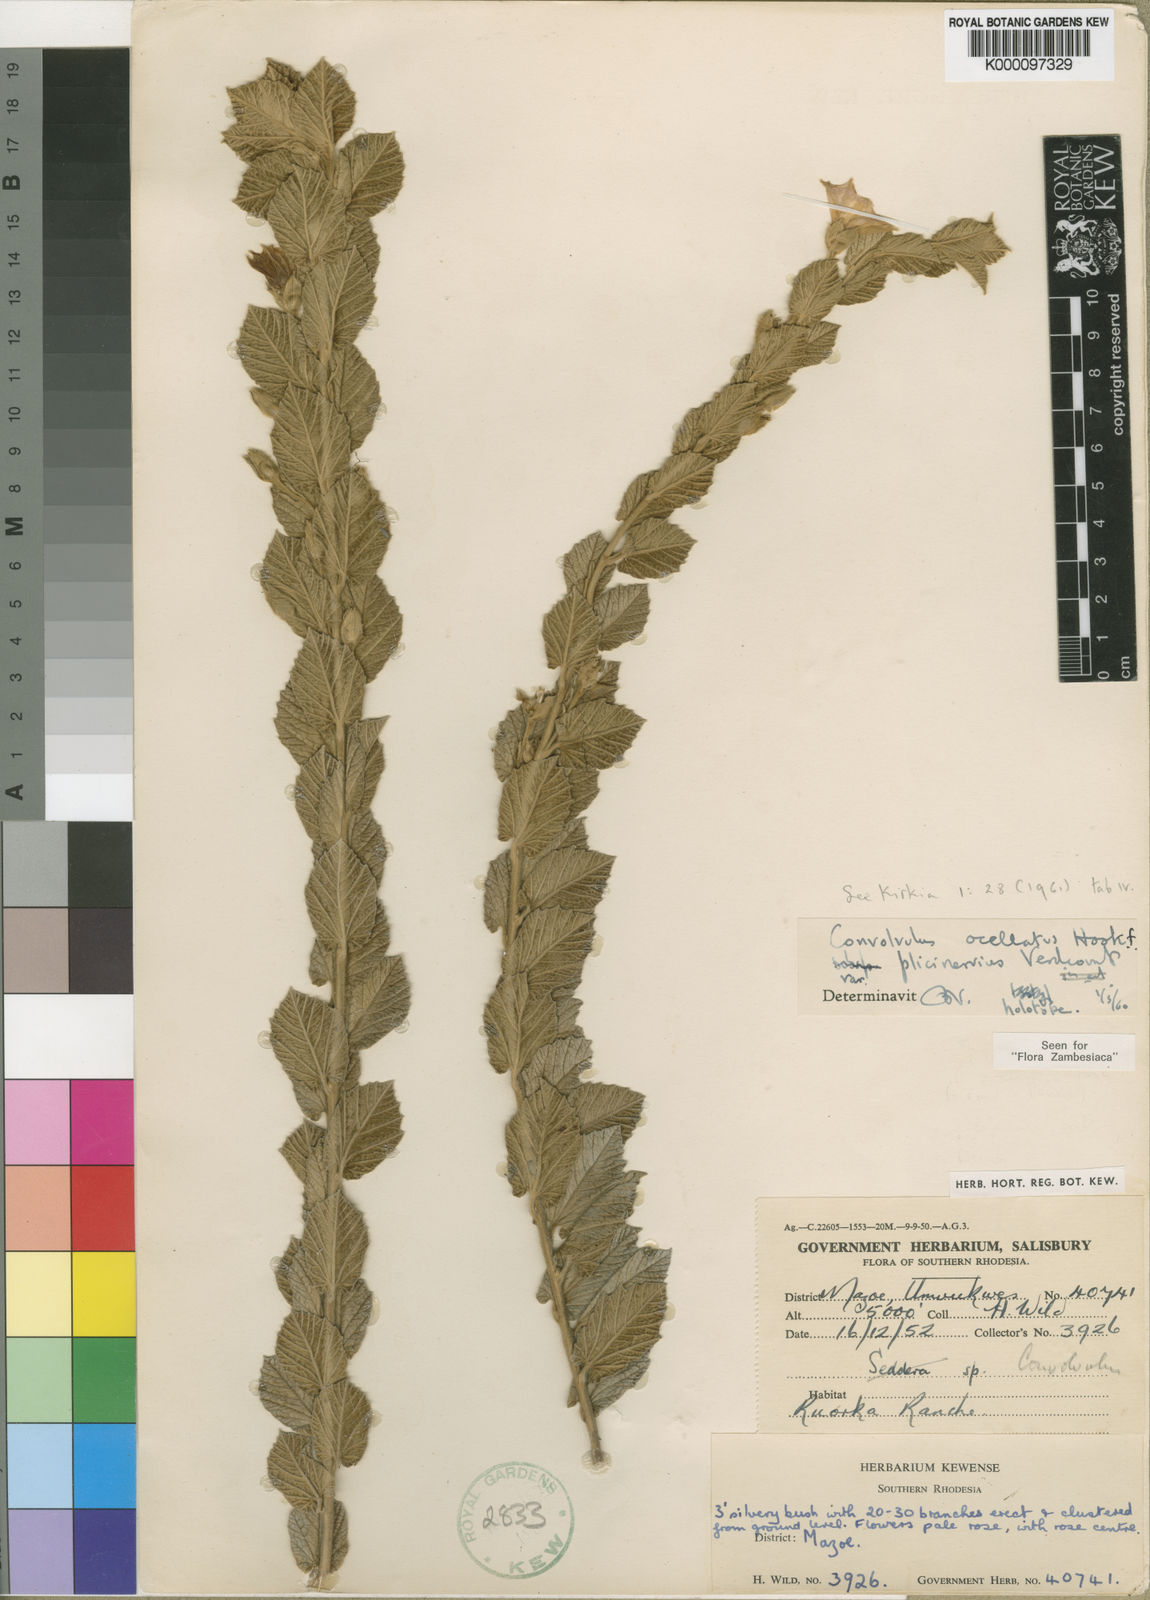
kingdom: Plantae
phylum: Tracheophyta
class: Magnoliopsida
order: Solanales
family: Convolvulaceae
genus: Convolvulus
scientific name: Convolvulus ocellatus
